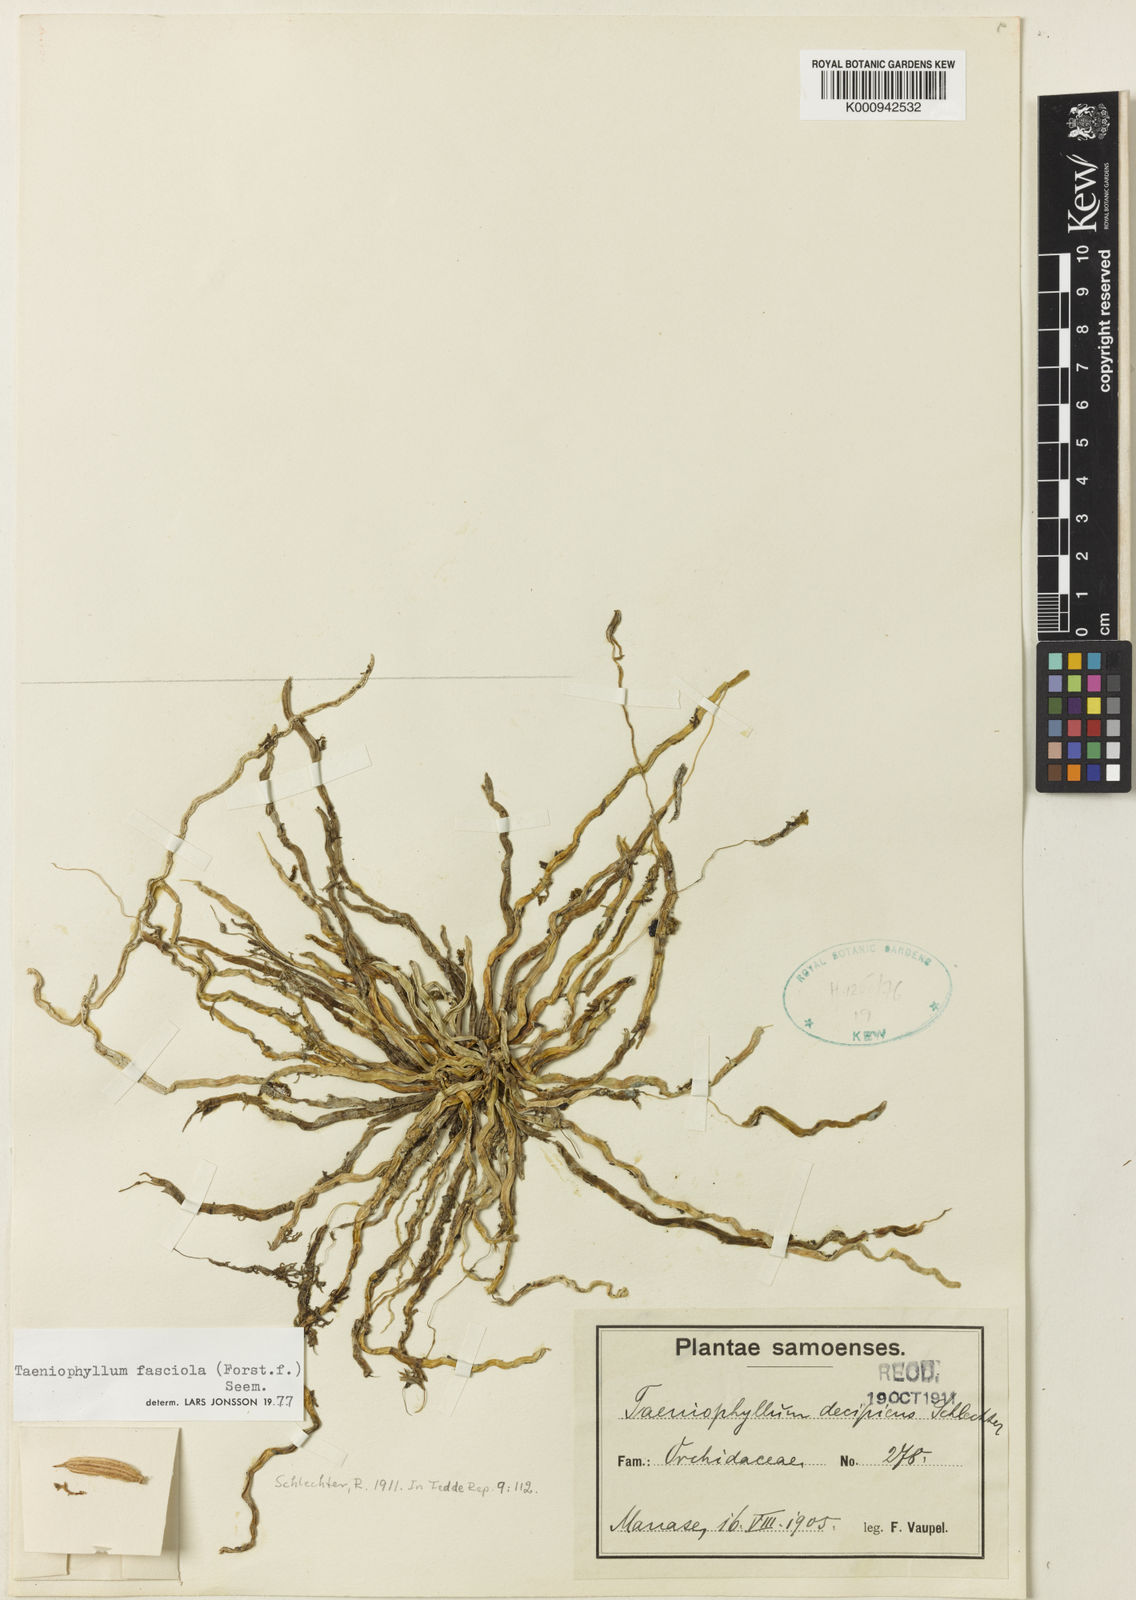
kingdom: Plantae
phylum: Tracheophyta
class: Liliopsida
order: Asparagales
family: Orchidaceae
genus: Taeniophyllum
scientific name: Taeniophyllum fasciola
